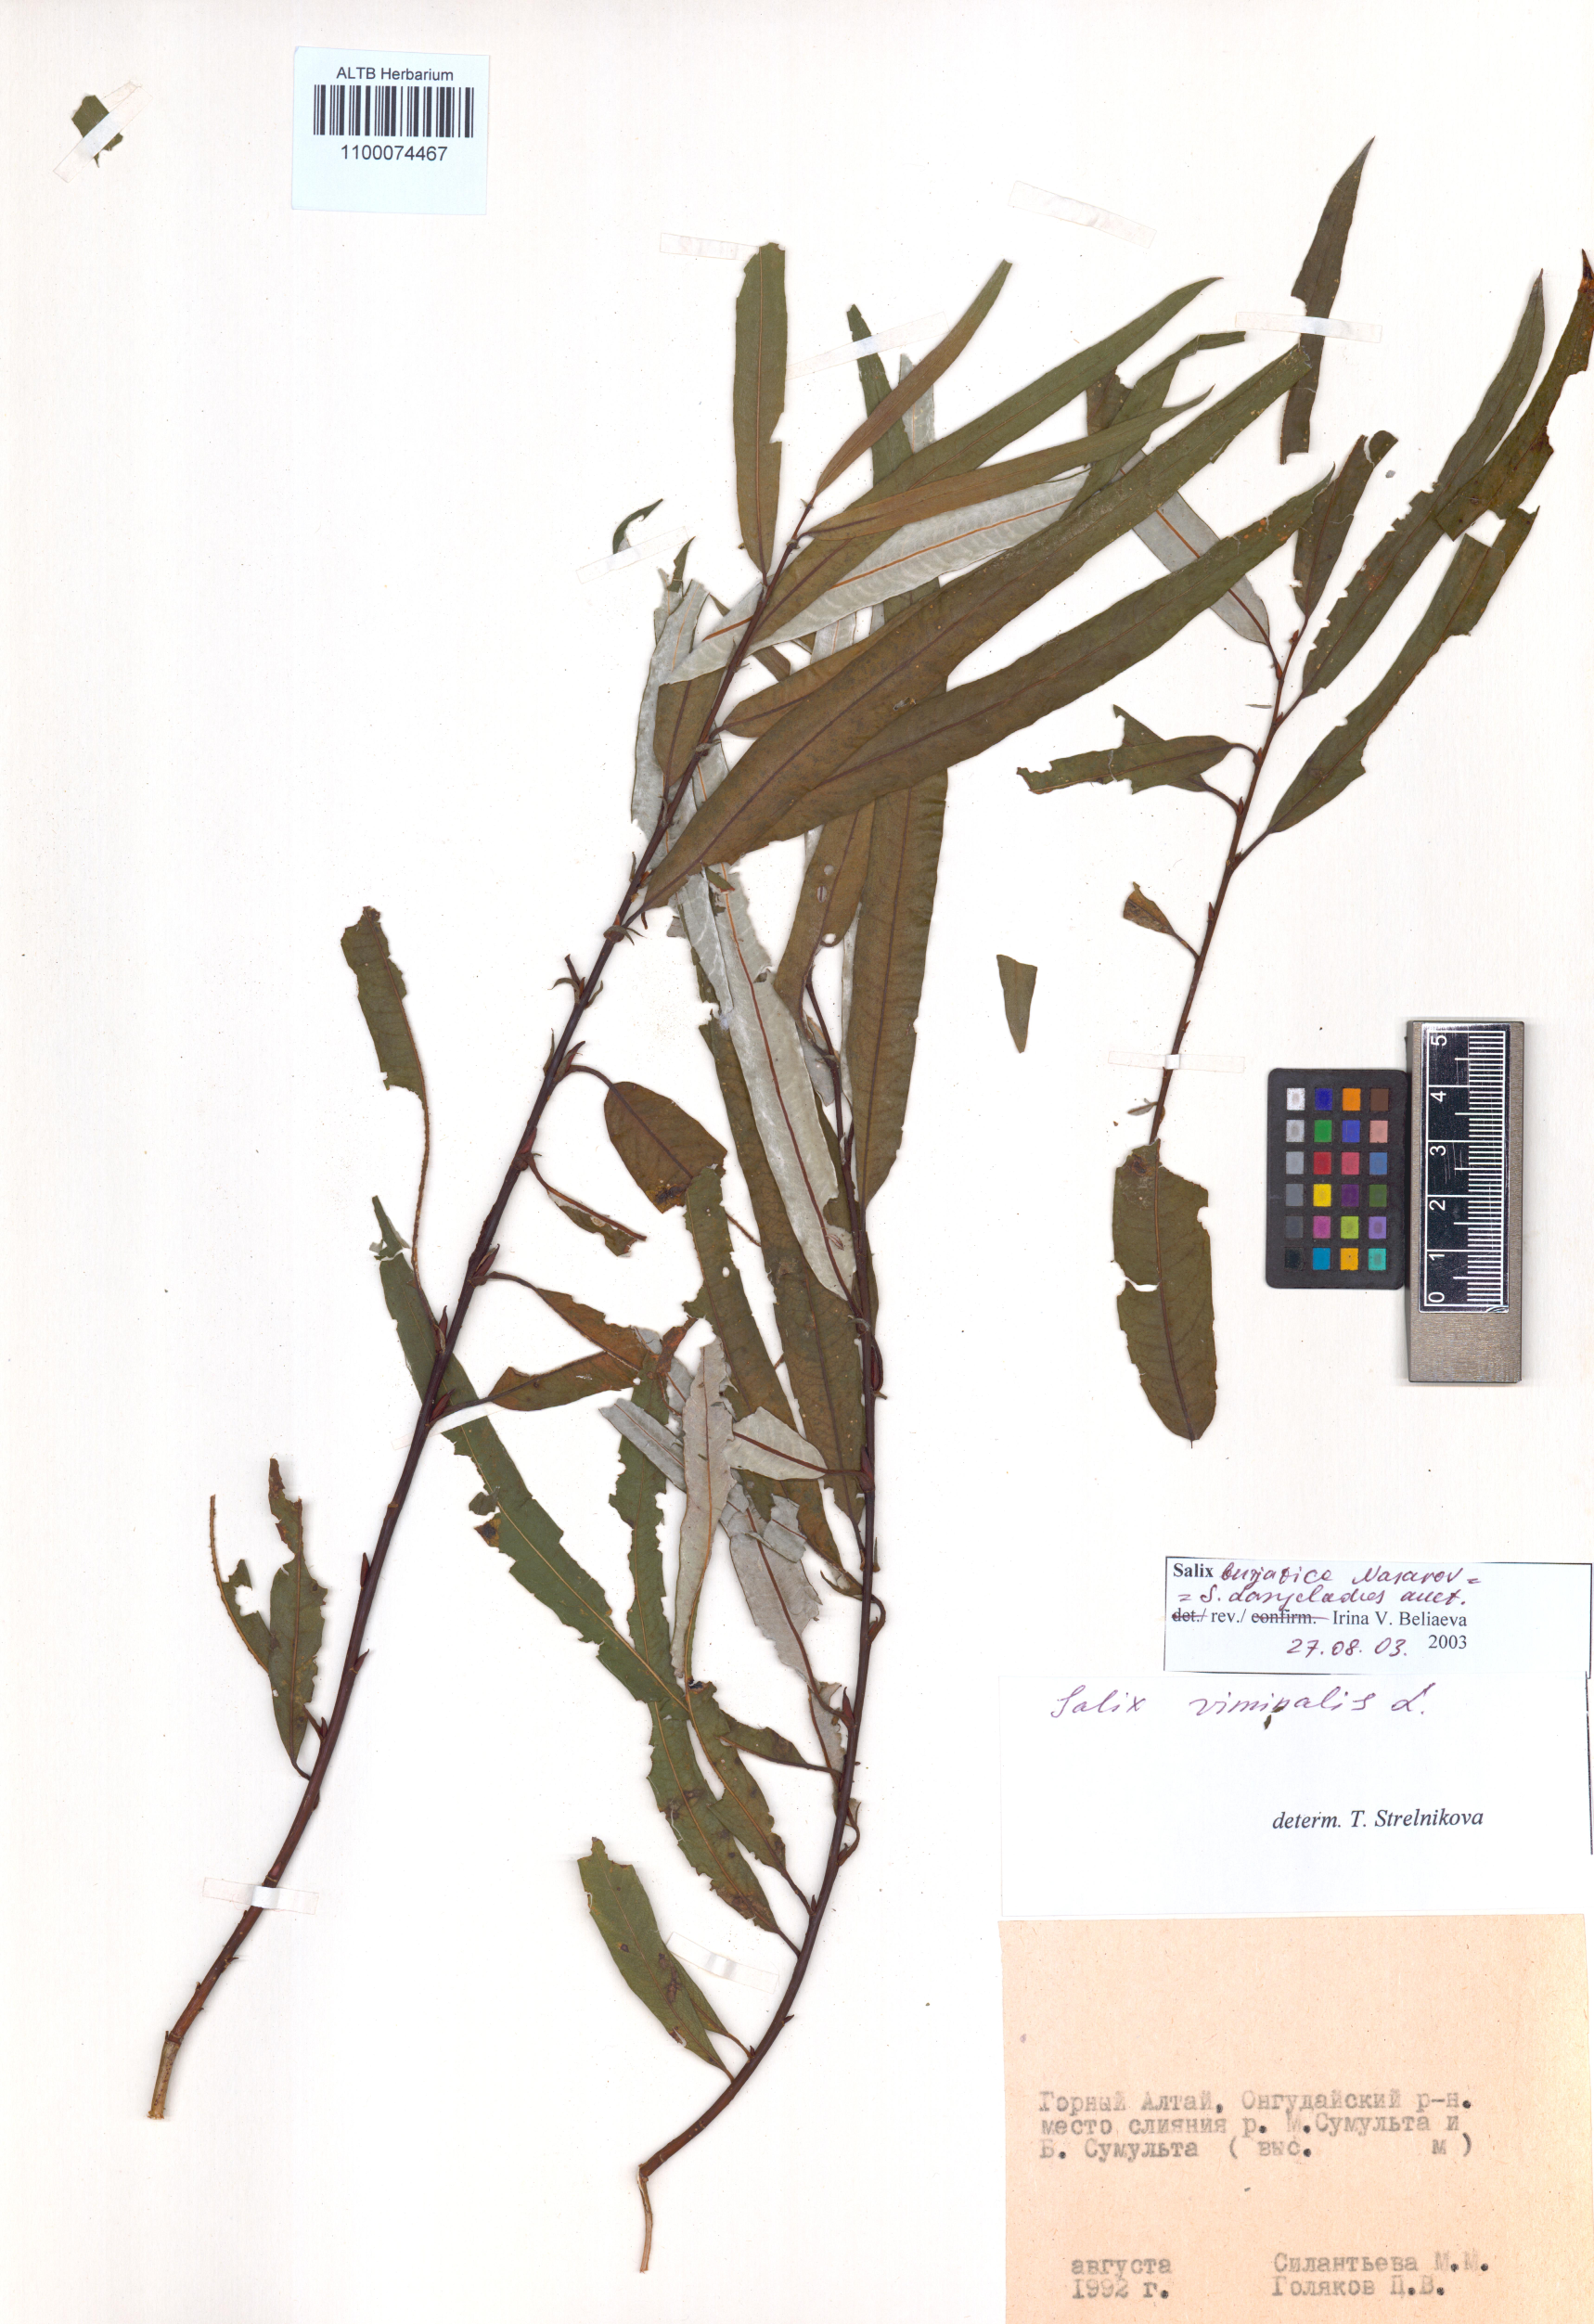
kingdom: Plantae
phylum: Tracheophyta
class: Magnoliopsida
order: Malpighiales
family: Salicaceae
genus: Salix
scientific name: Salix gmelinii
